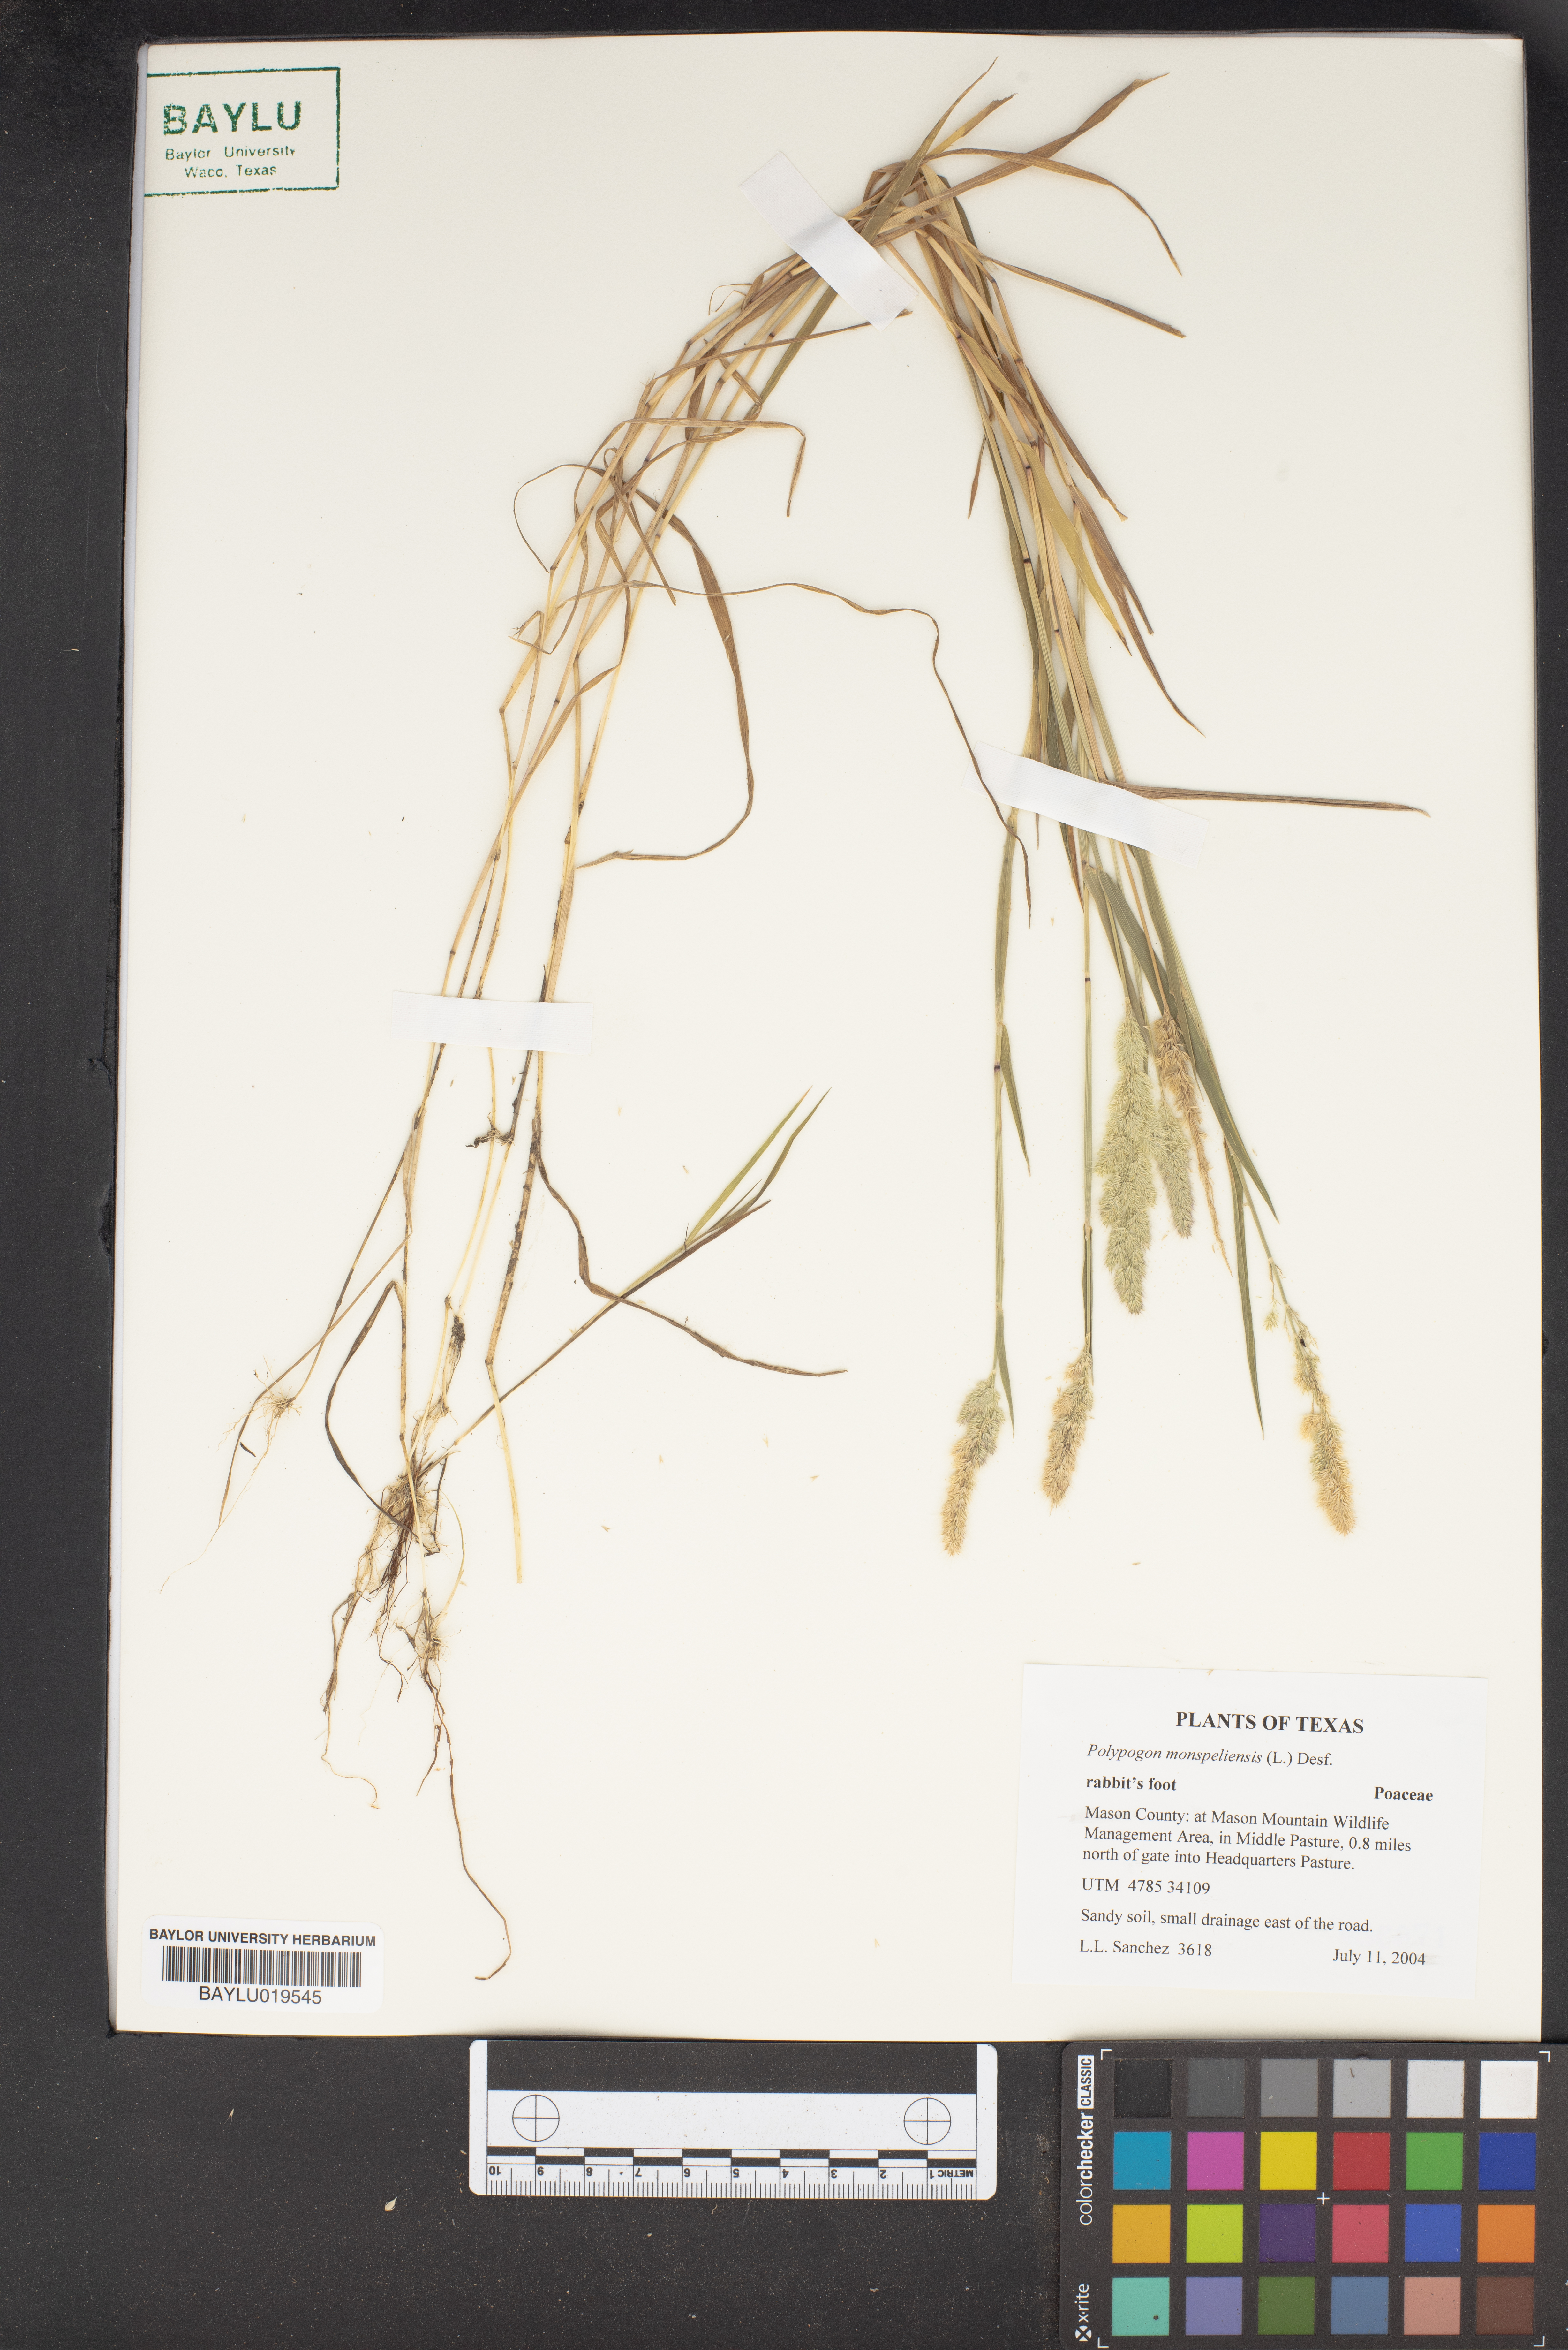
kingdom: Plantae
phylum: Tracheophyta
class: Liliopsida
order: Poales
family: Poaceae
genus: Polypogon
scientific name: Polypogon monspeliensis
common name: Annual rabbitsfoot grass
